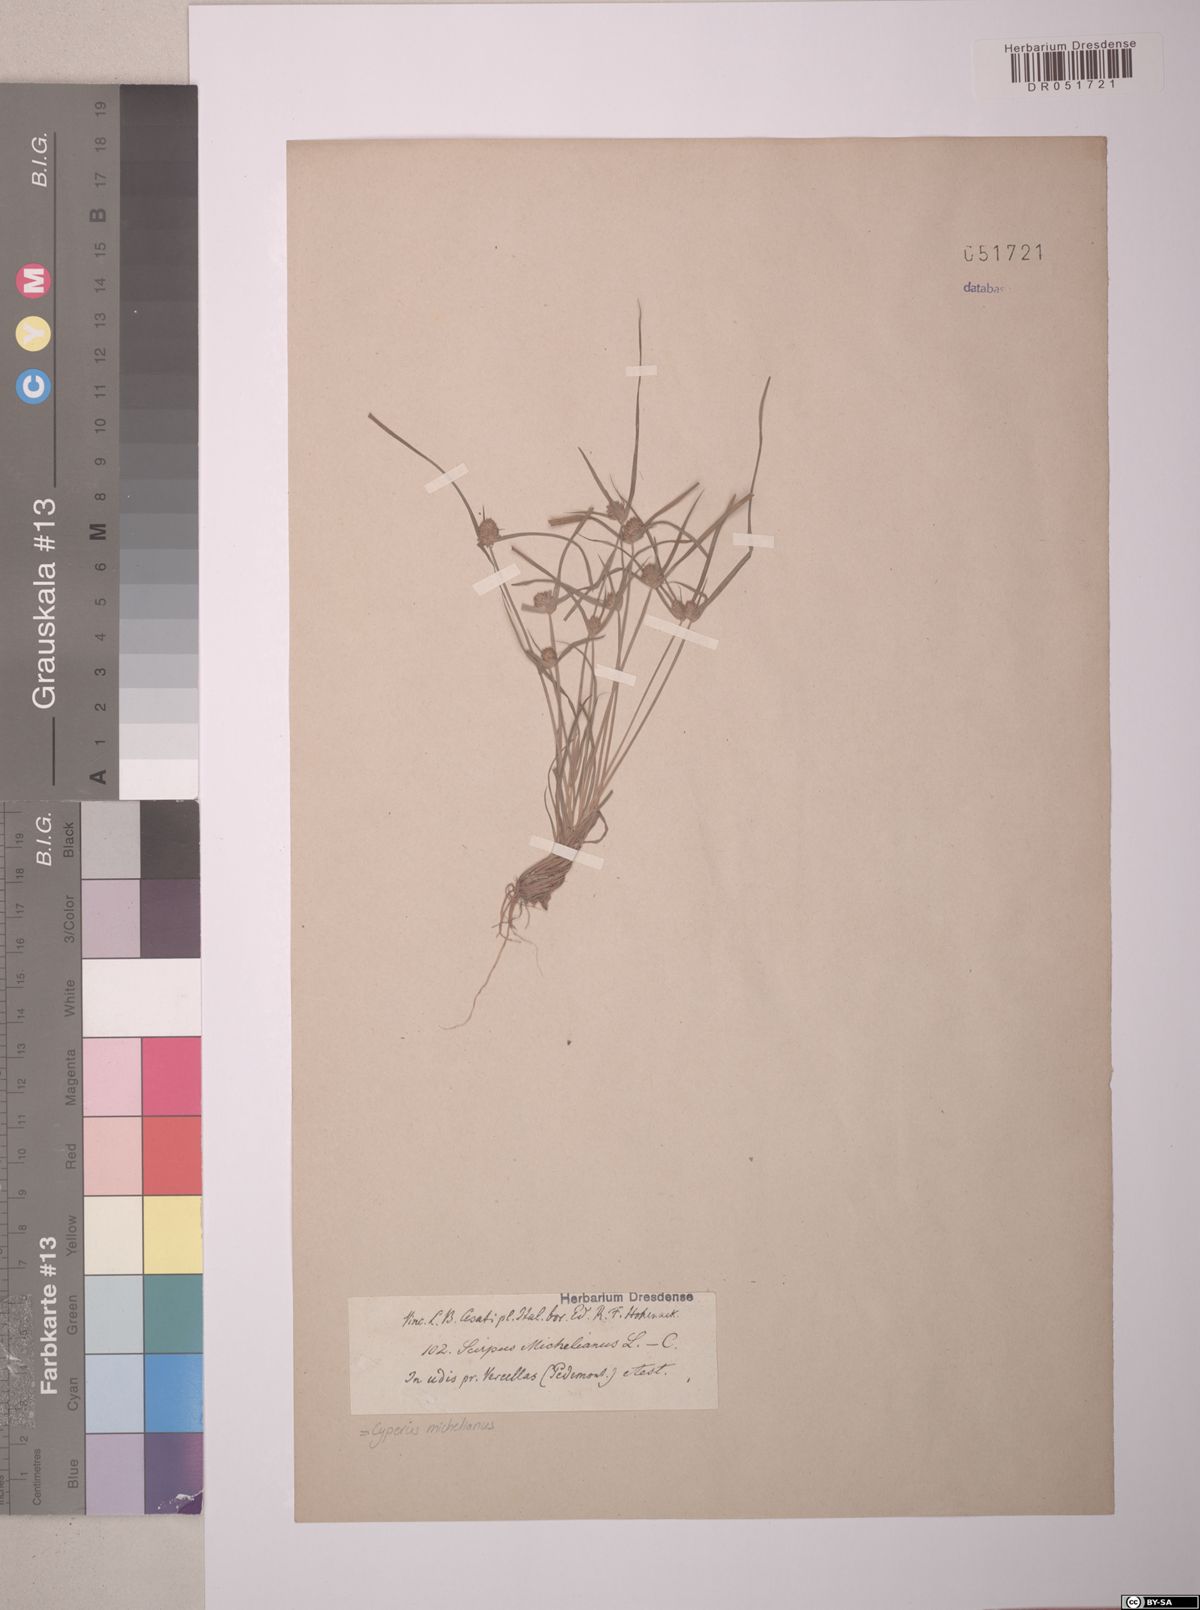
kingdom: Plantae
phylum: Tracheophyta
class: Liliopsida
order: Poales
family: Cyperaceae
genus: Cyperus
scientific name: Cyperus michelianus
